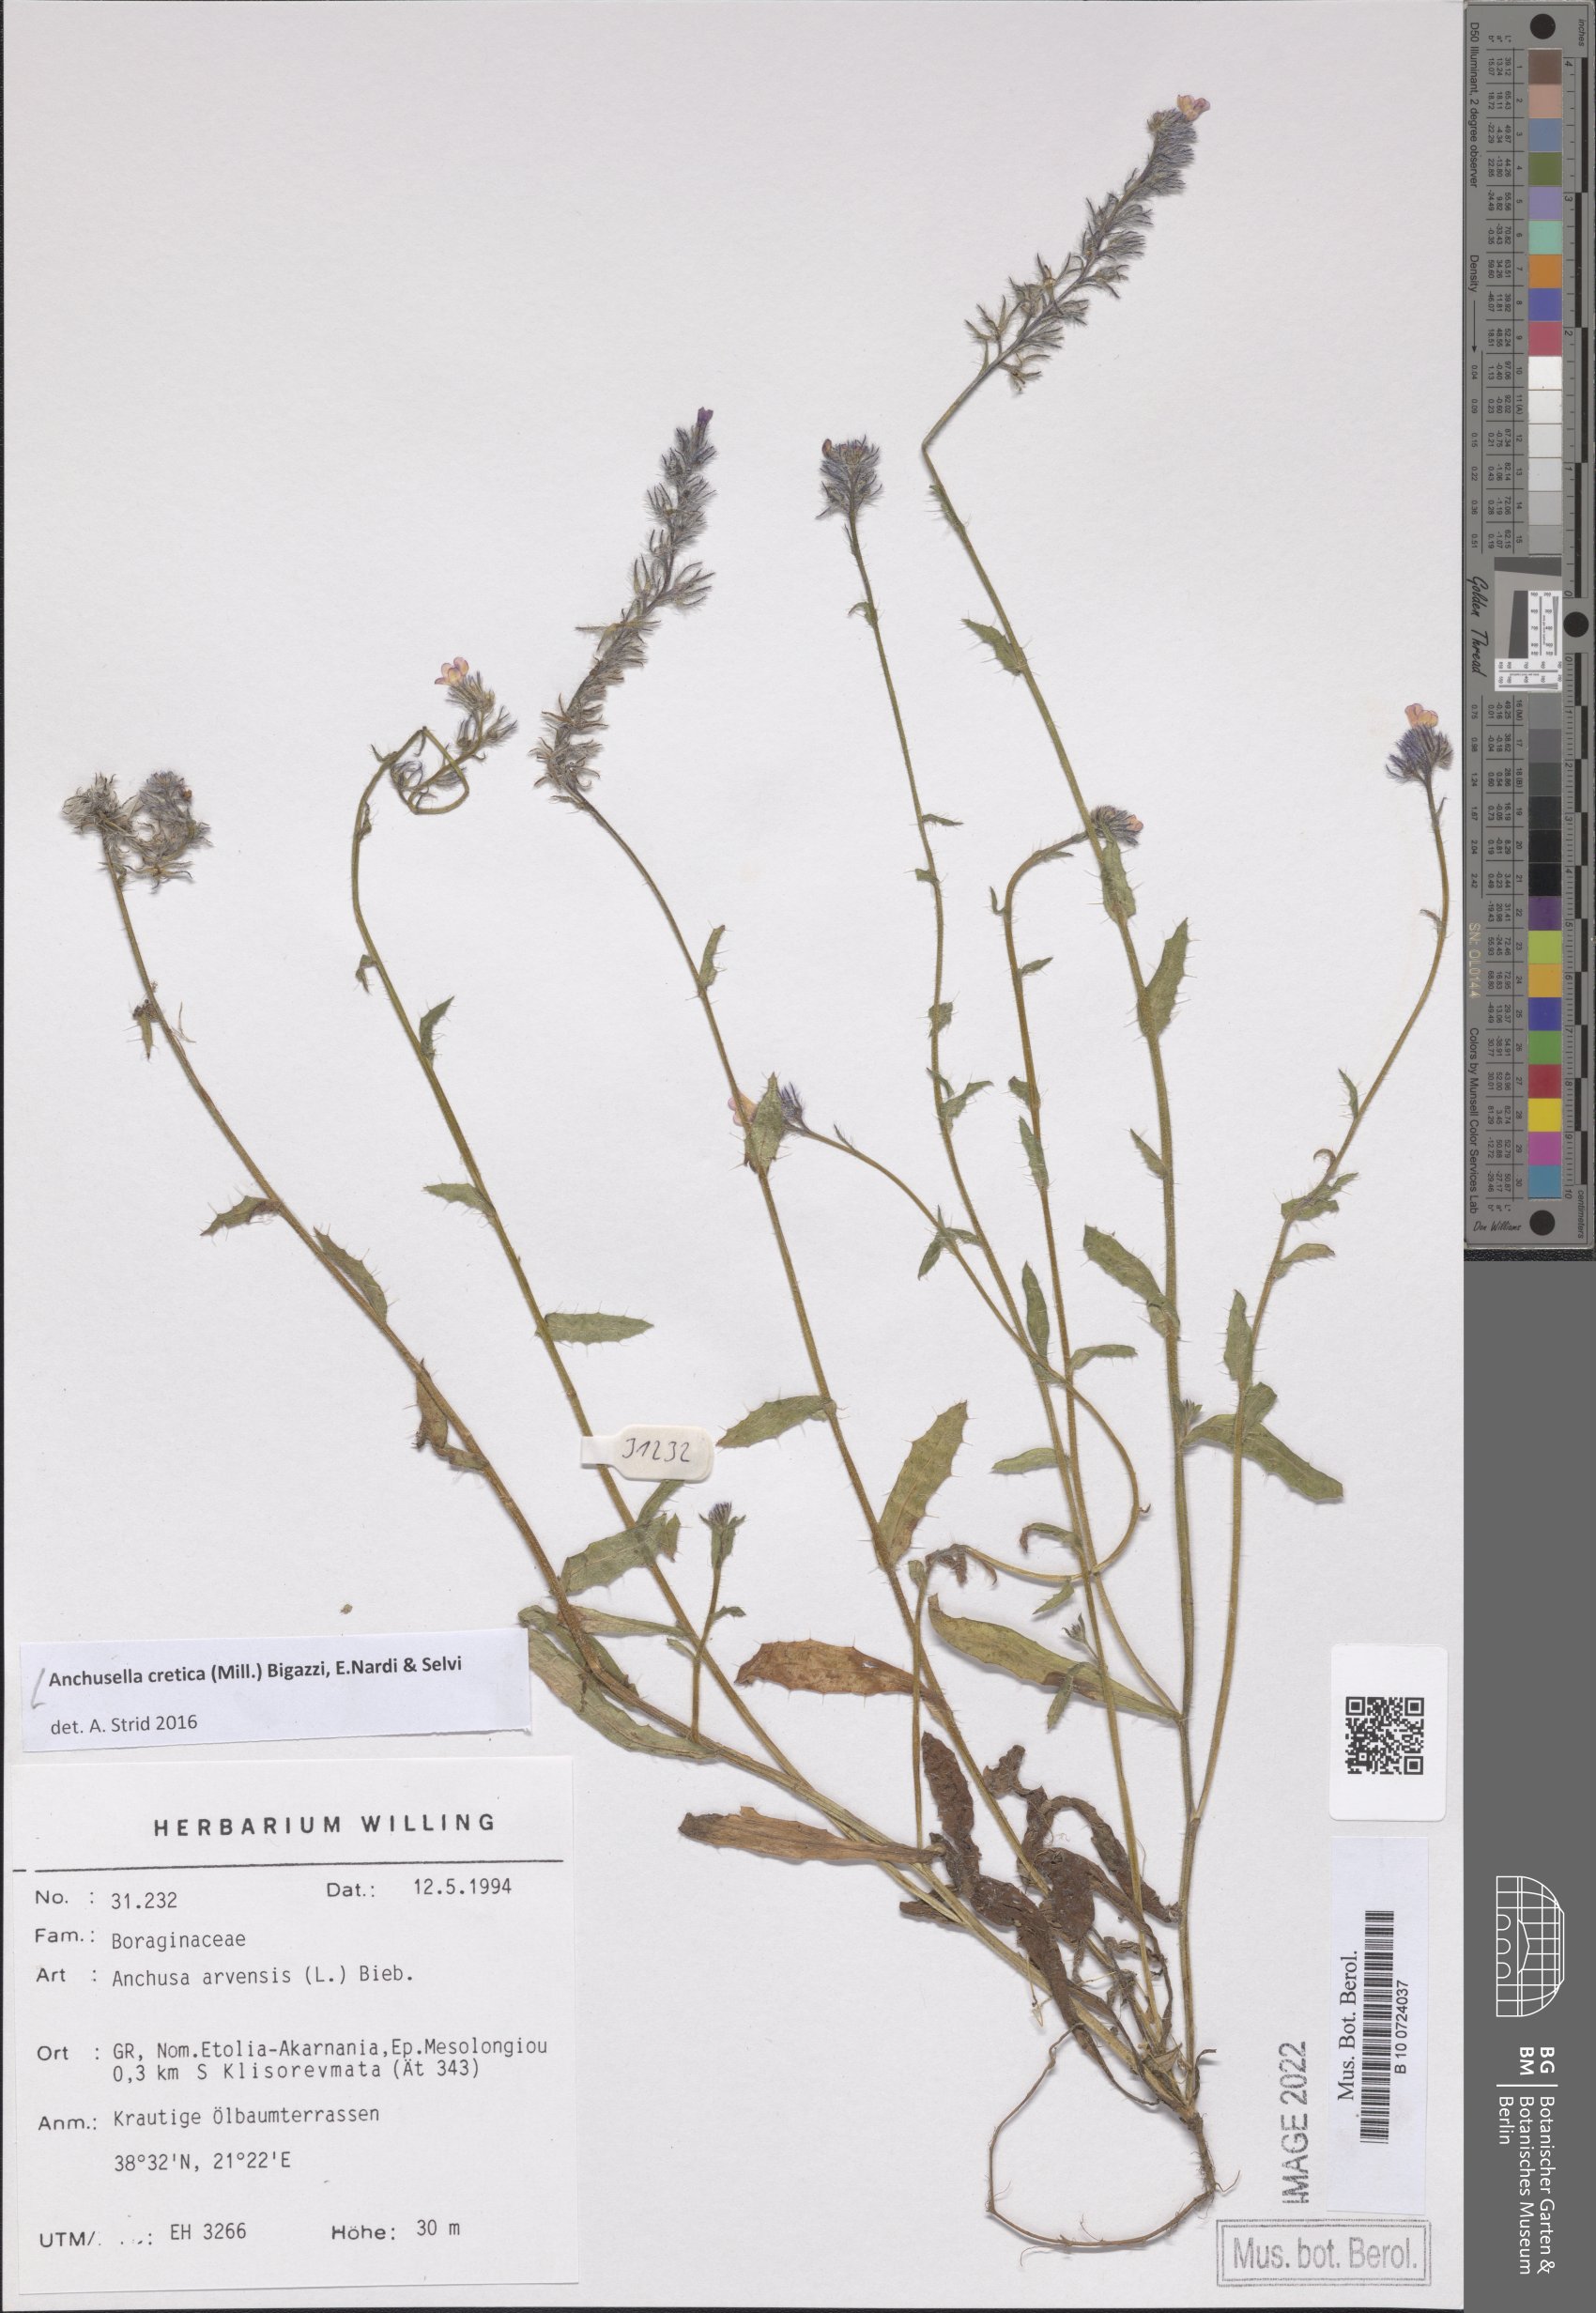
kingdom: Plantae
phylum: Tracheophyta
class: Magnoliopsida
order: Boraginales
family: Boraginaceae
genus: Anchusella
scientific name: Anchusella cretica
